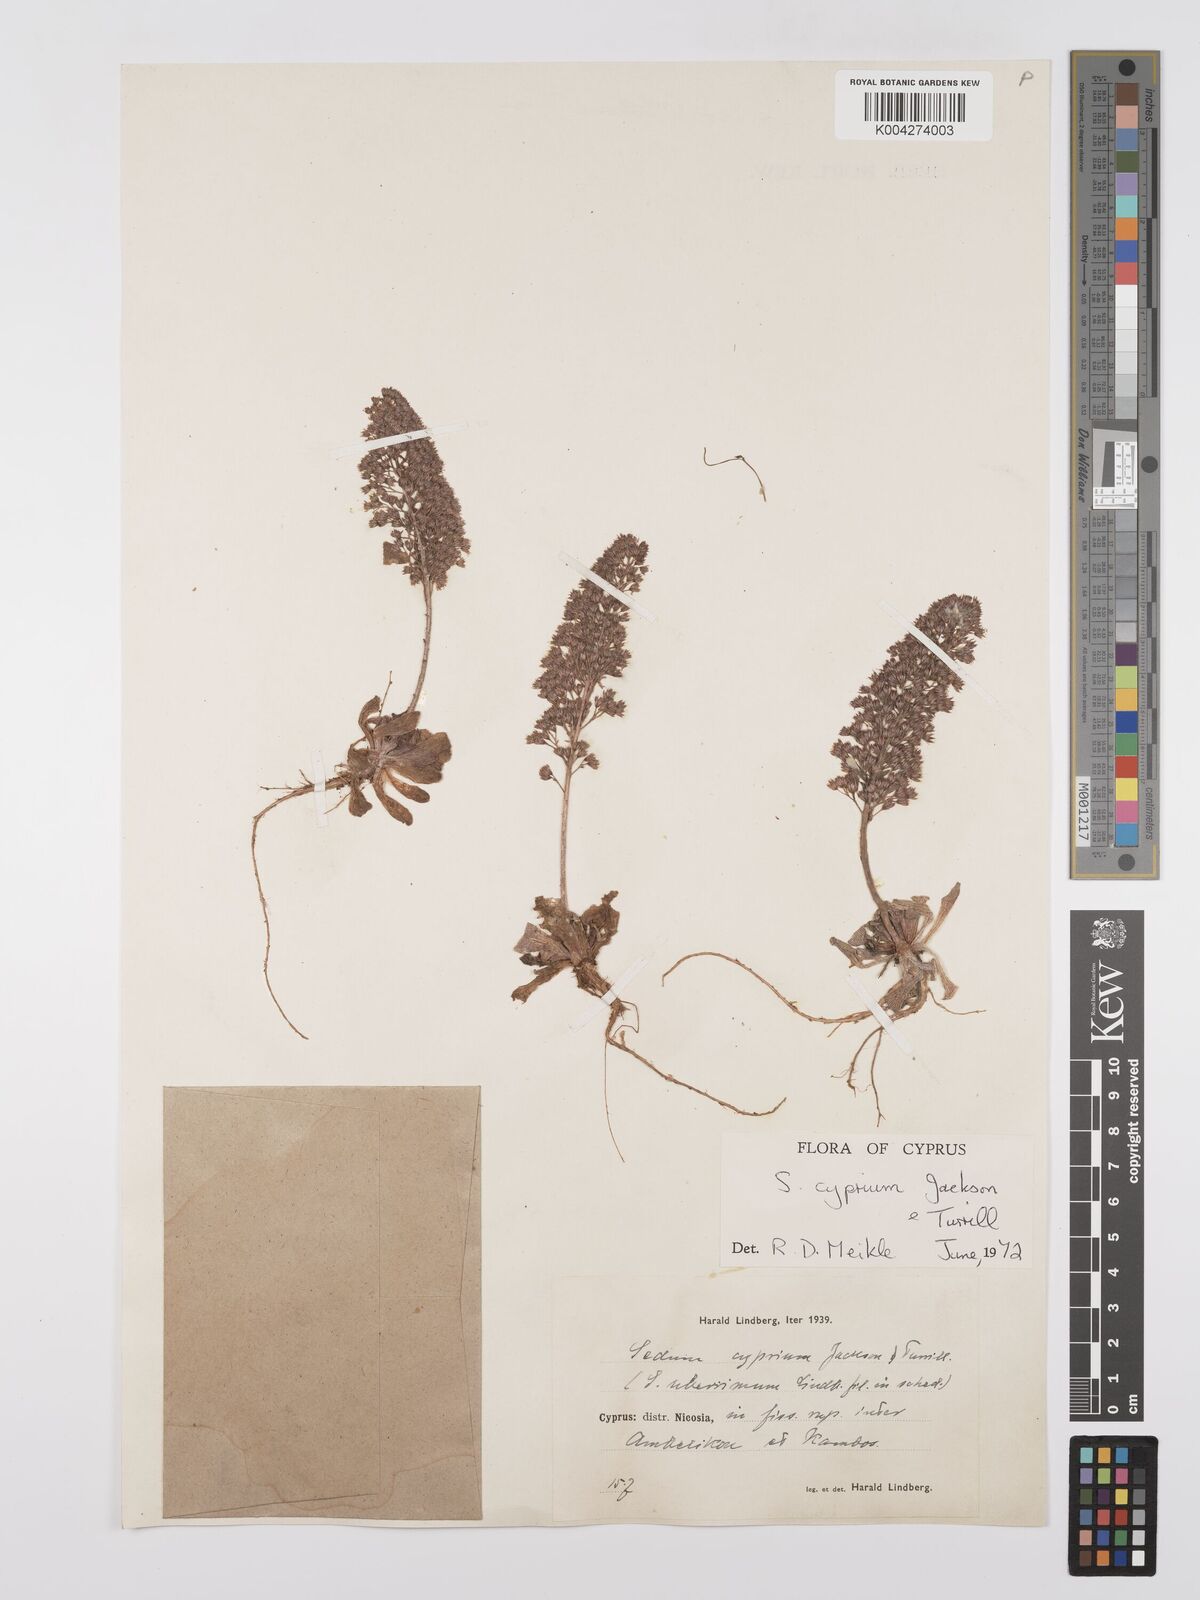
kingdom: Plantae
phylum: Tracheophyta
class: Magnoliopsida
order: Saxifragales
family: Crassulaceae
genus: Sedum
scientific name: Sedum cyprium
